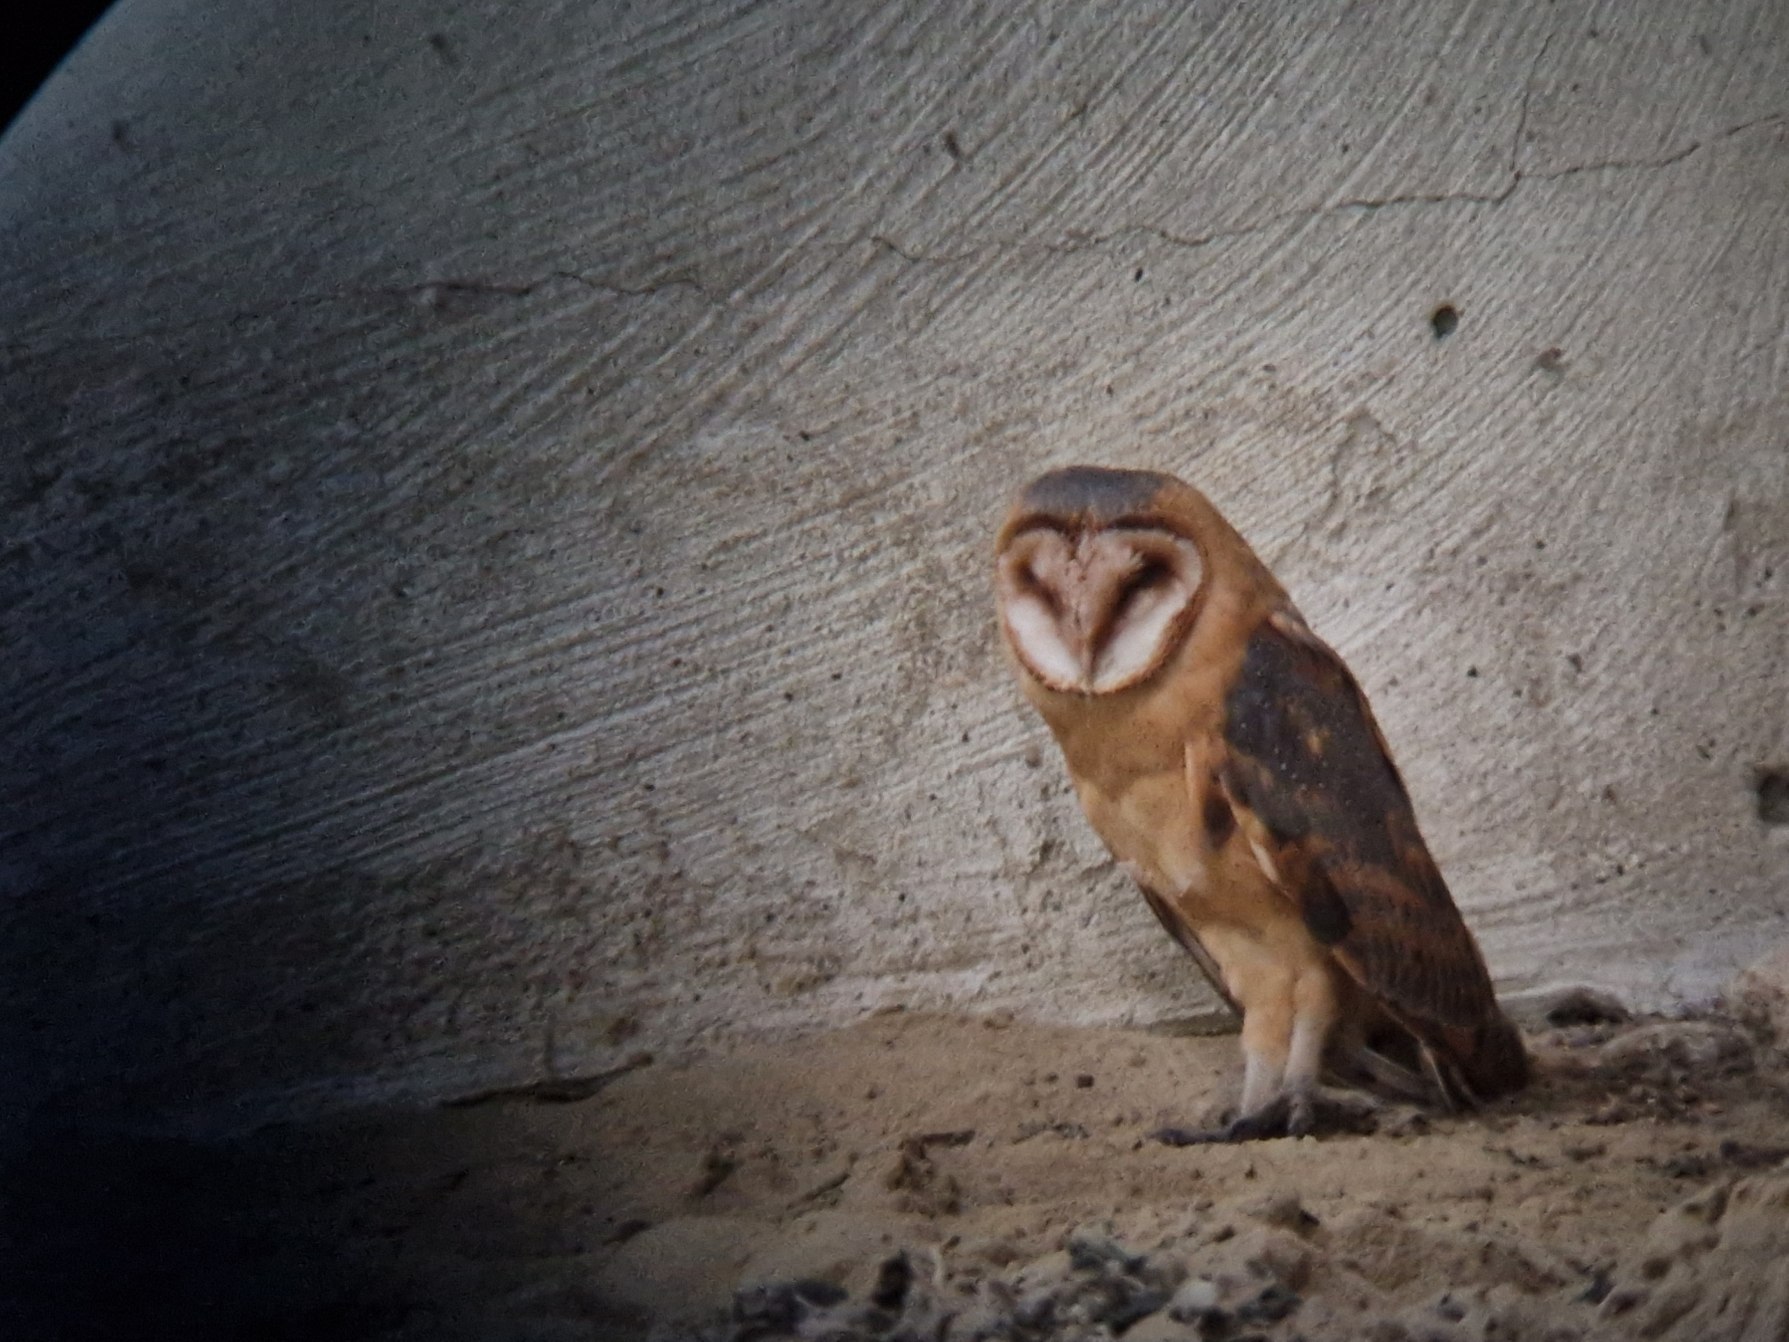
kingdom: Animalia
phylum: Chordata
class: Aves
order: Strigiformes
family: Tytonidae
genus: Tyto
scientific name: Tyto alba
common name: Slørugle
